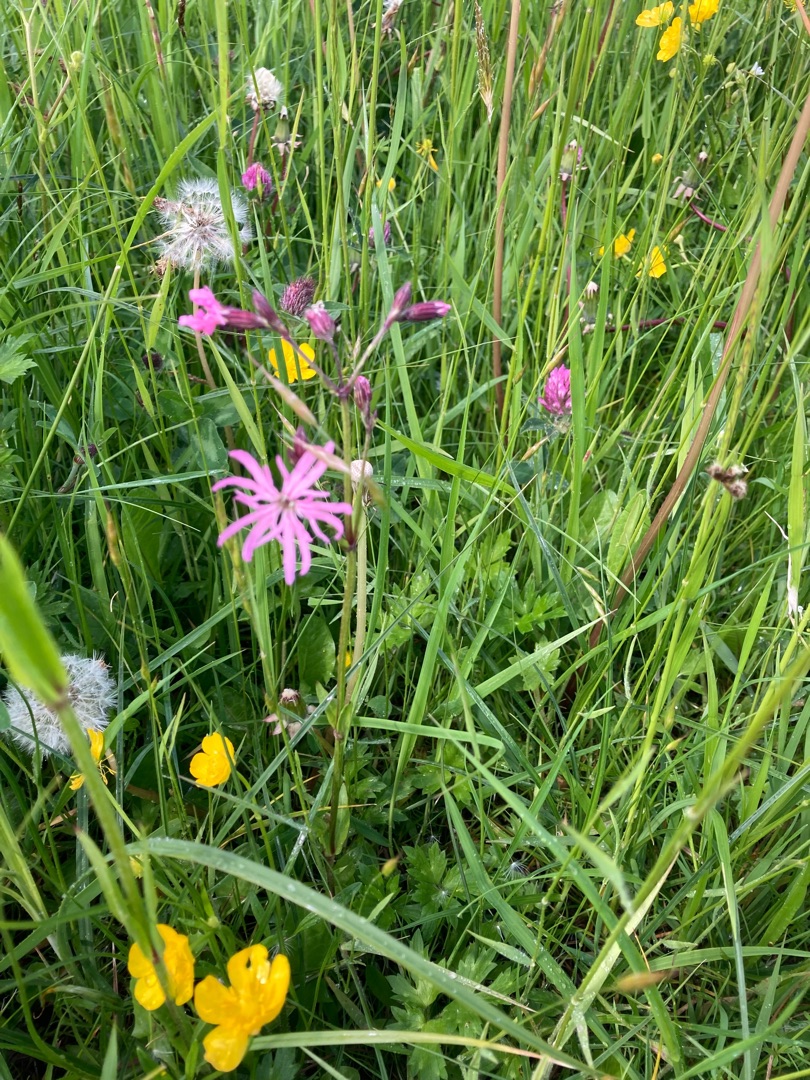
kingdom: Plantae
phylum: Tracheophyta
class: Magnoliopsida
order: Caryophyllales
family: Caryophyllaceae
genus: Silene
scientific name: Silene flos-cuculi
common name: Trævlekrone
